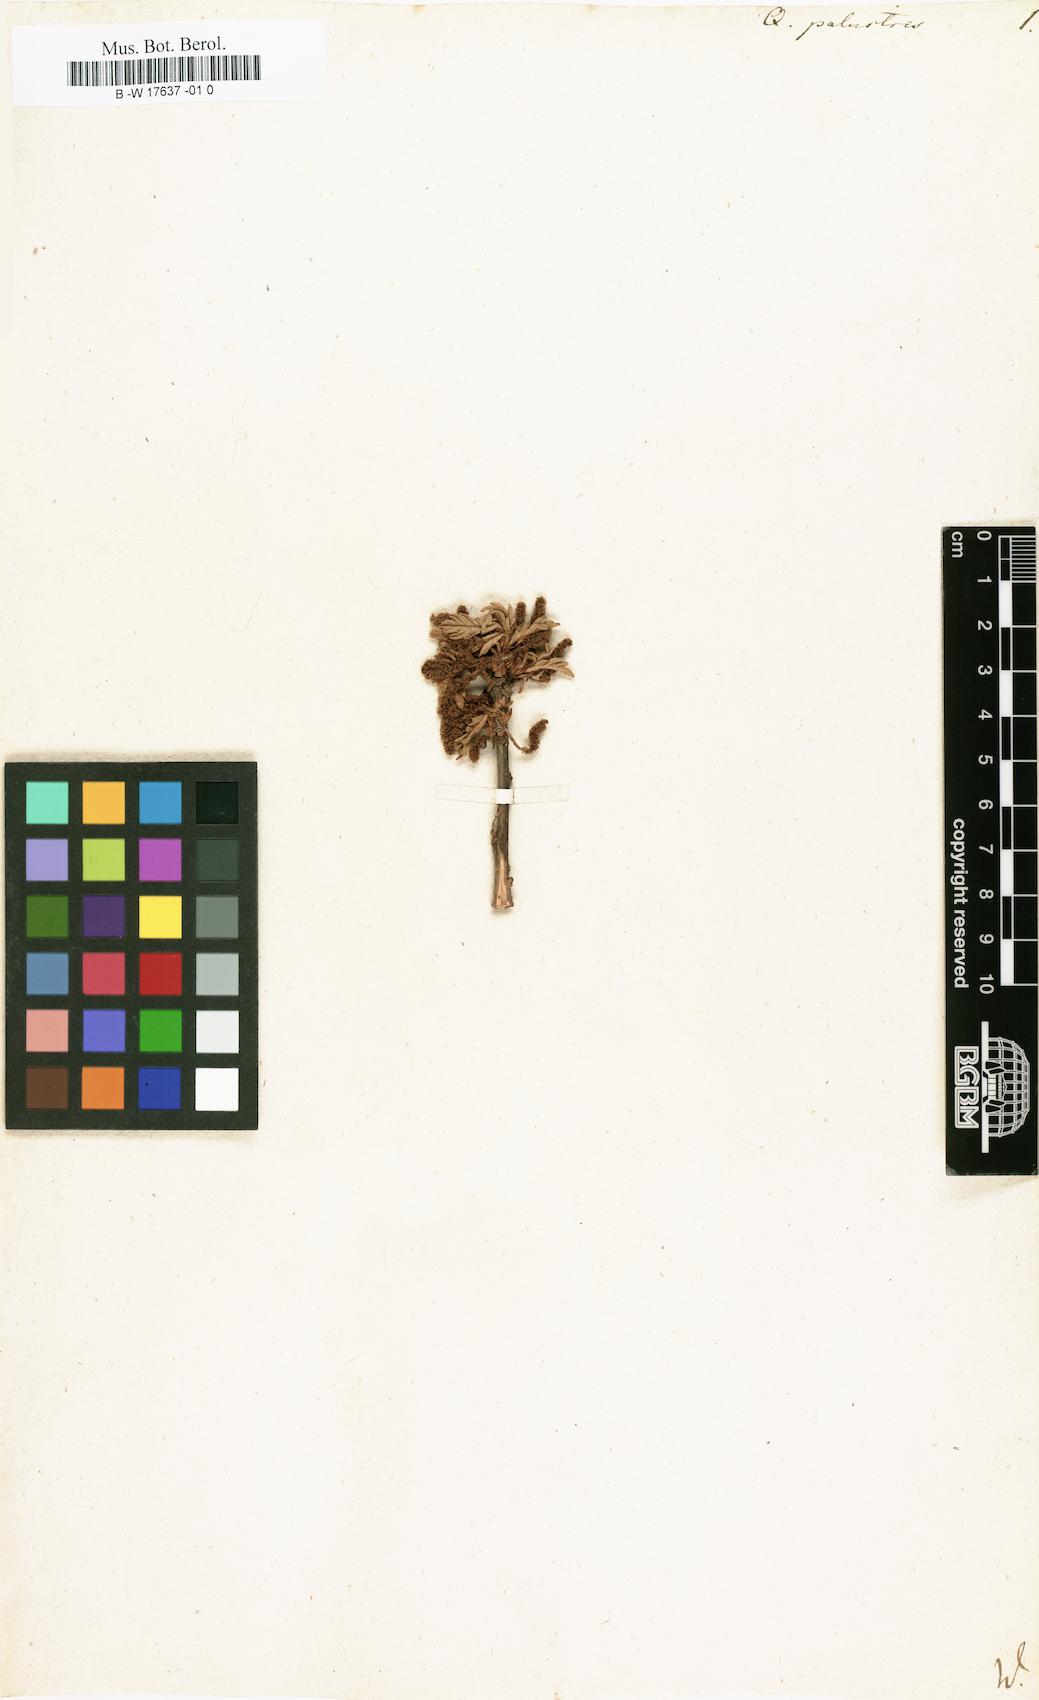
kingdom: Plantae
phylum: Tracheophyta
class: Magnoliopsida
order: Fagales
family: Fagaceae
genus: Quercus
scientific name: Quercus palustris
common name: Pin oak
